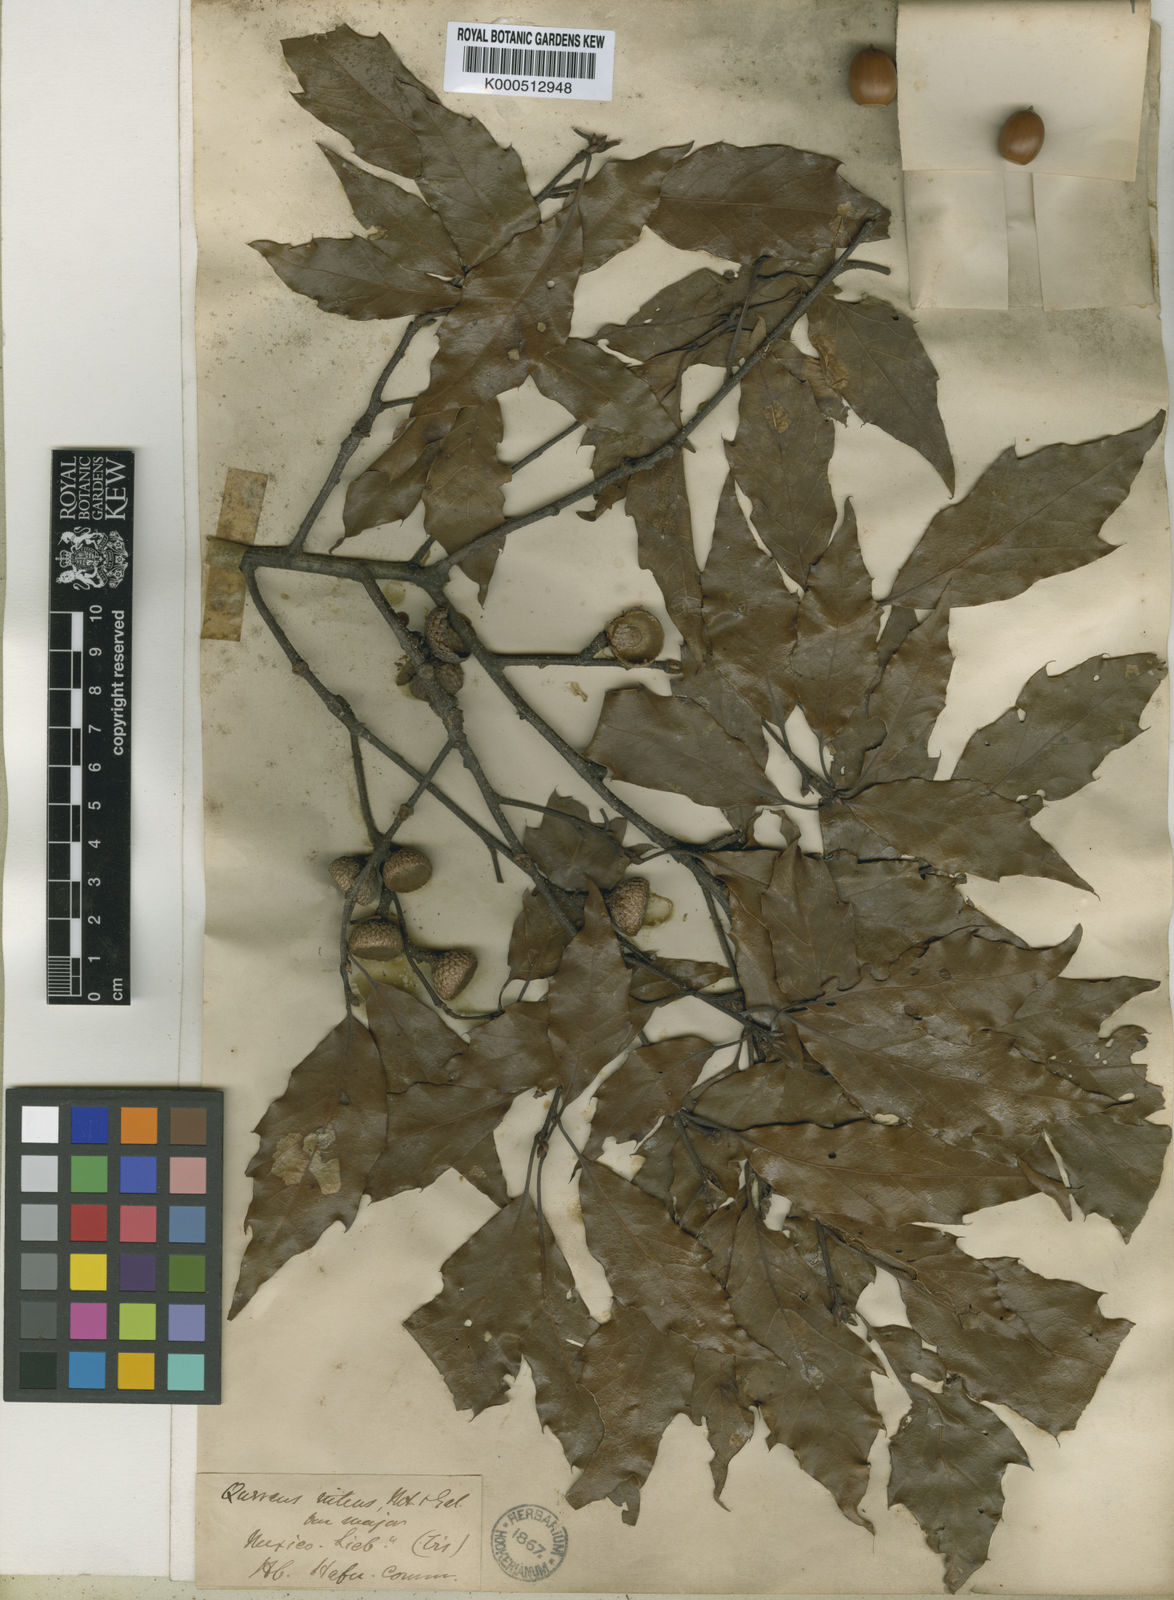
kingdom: Plantae
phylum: Tracheophyta
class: Magnoliopsida
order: Fagales
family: Fagaceae
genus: Quercus
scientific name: Quercus laurina
